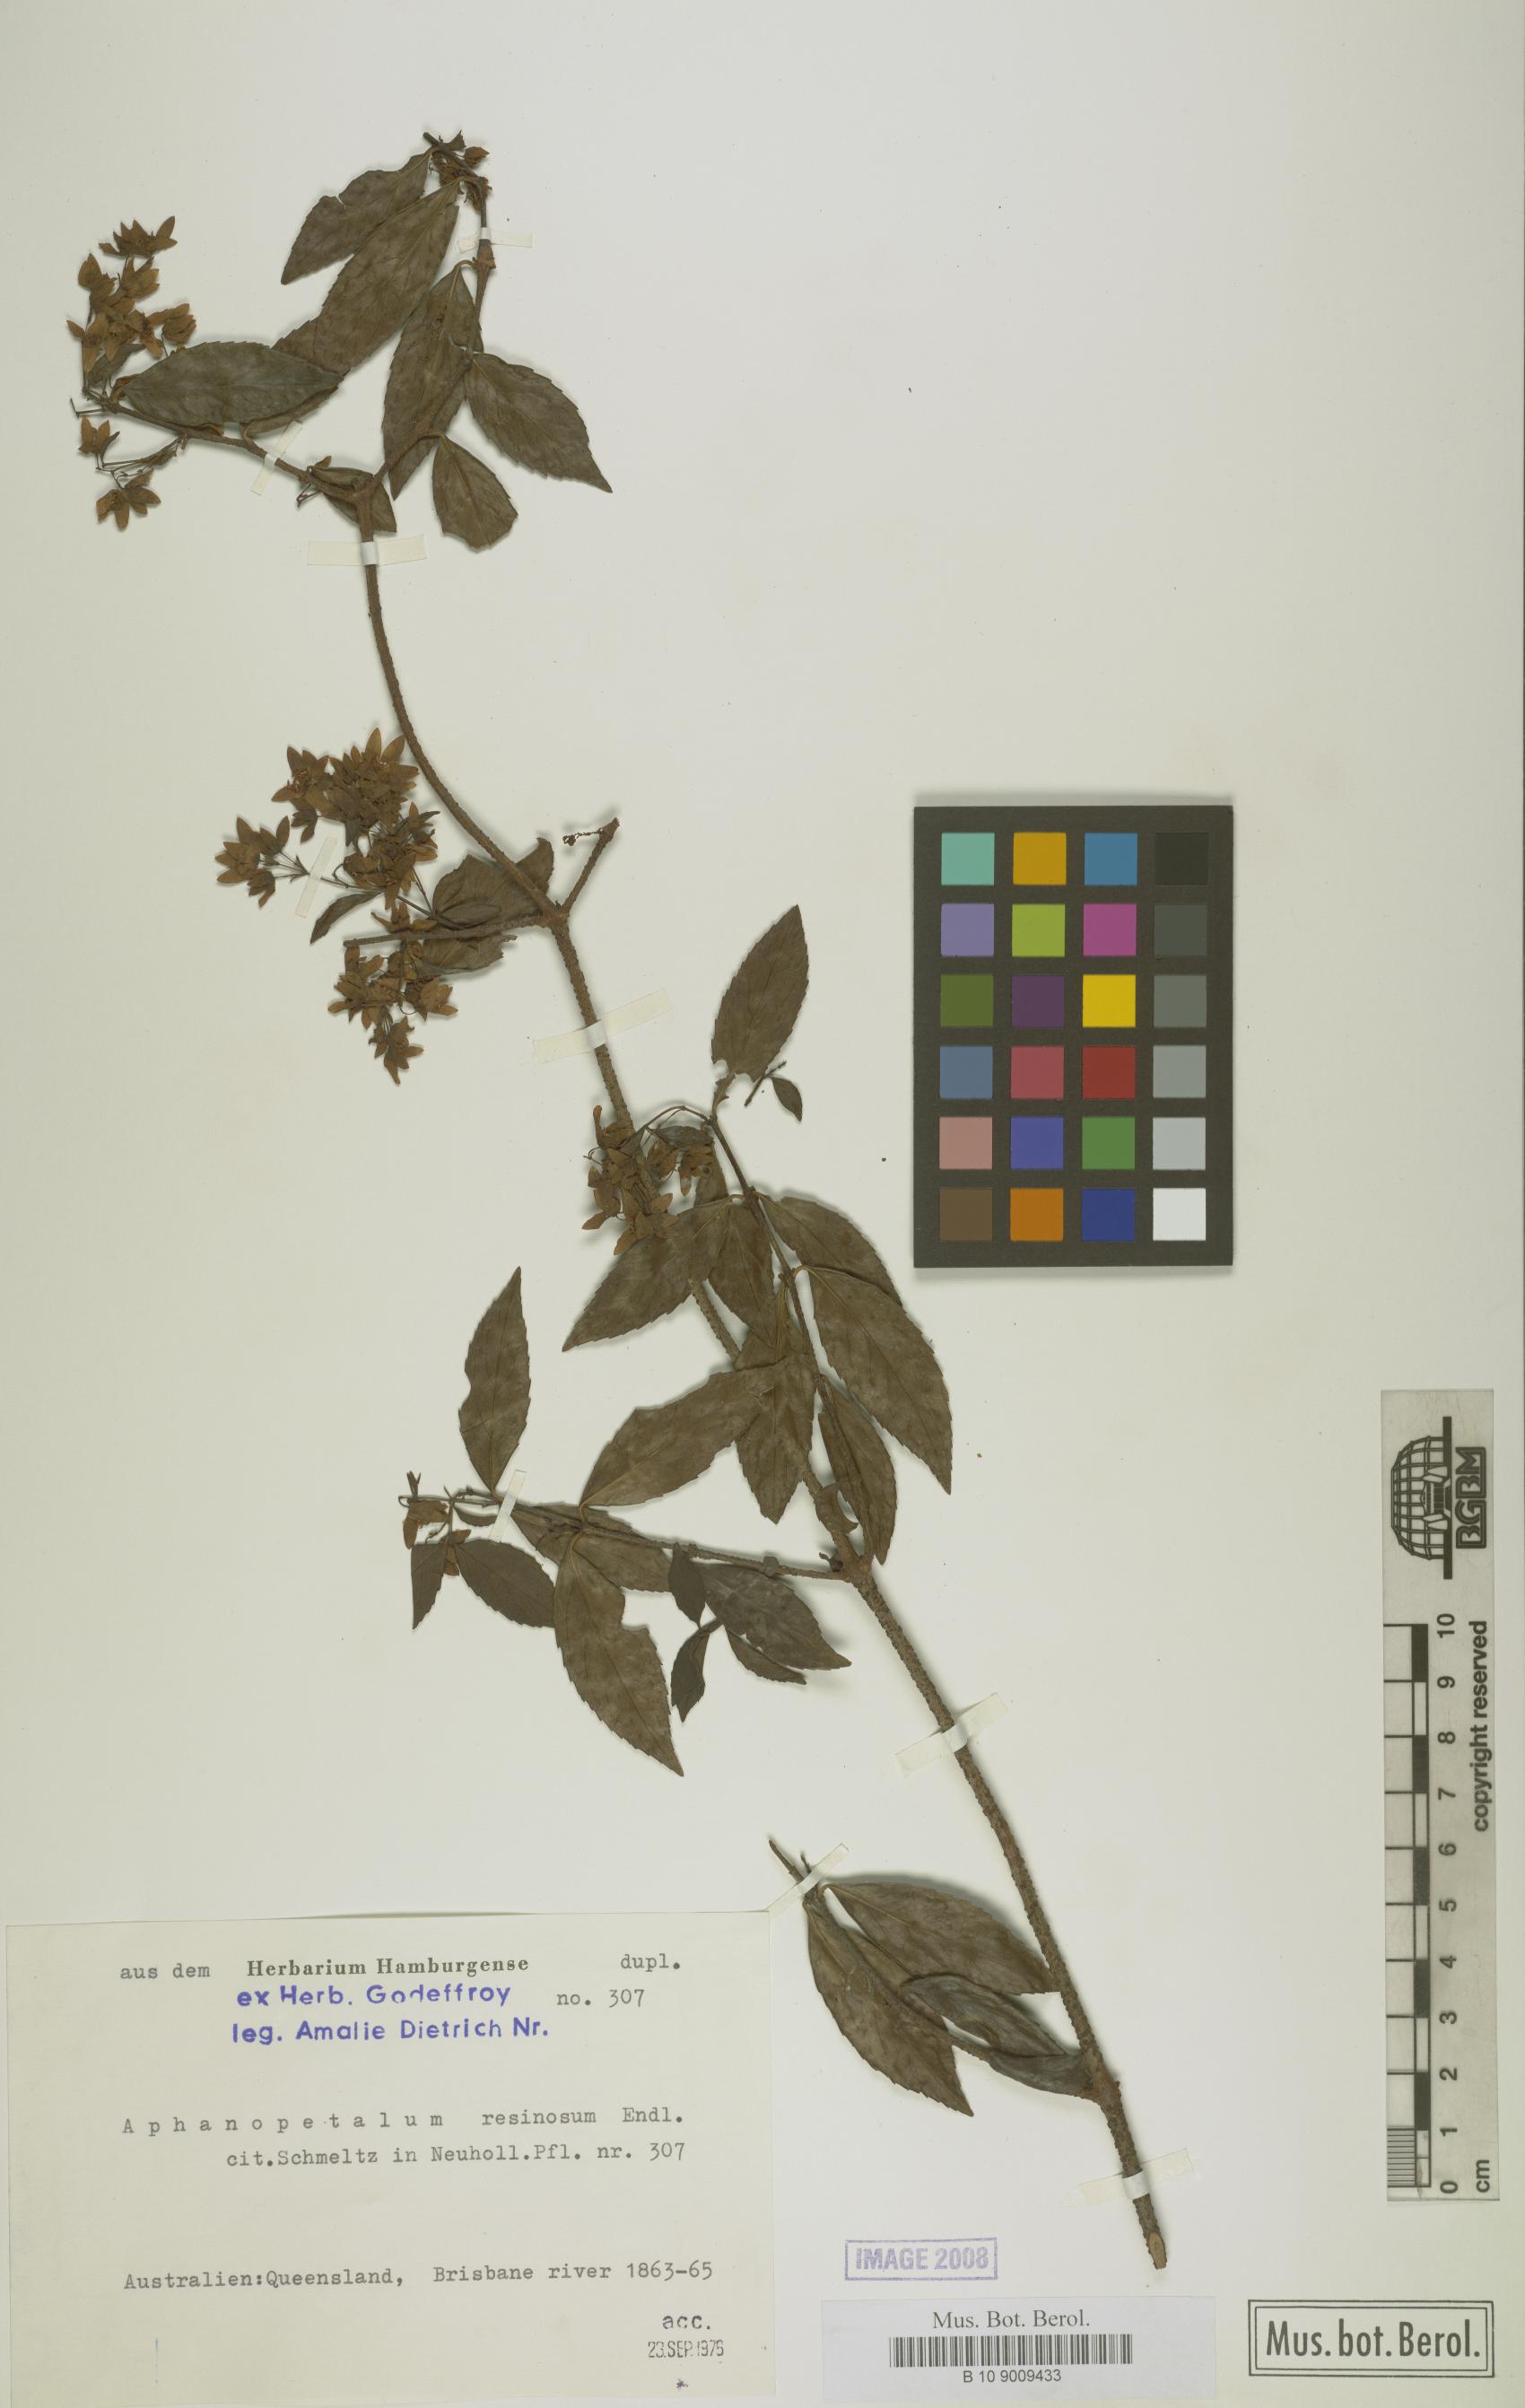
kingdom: Plantae
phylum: Tracheophyta
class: Magnoliopsida
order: Saxifragales
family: Aphanopetalaceae
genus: Aphanopetalum
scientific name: Aphanopetalum resinosum
